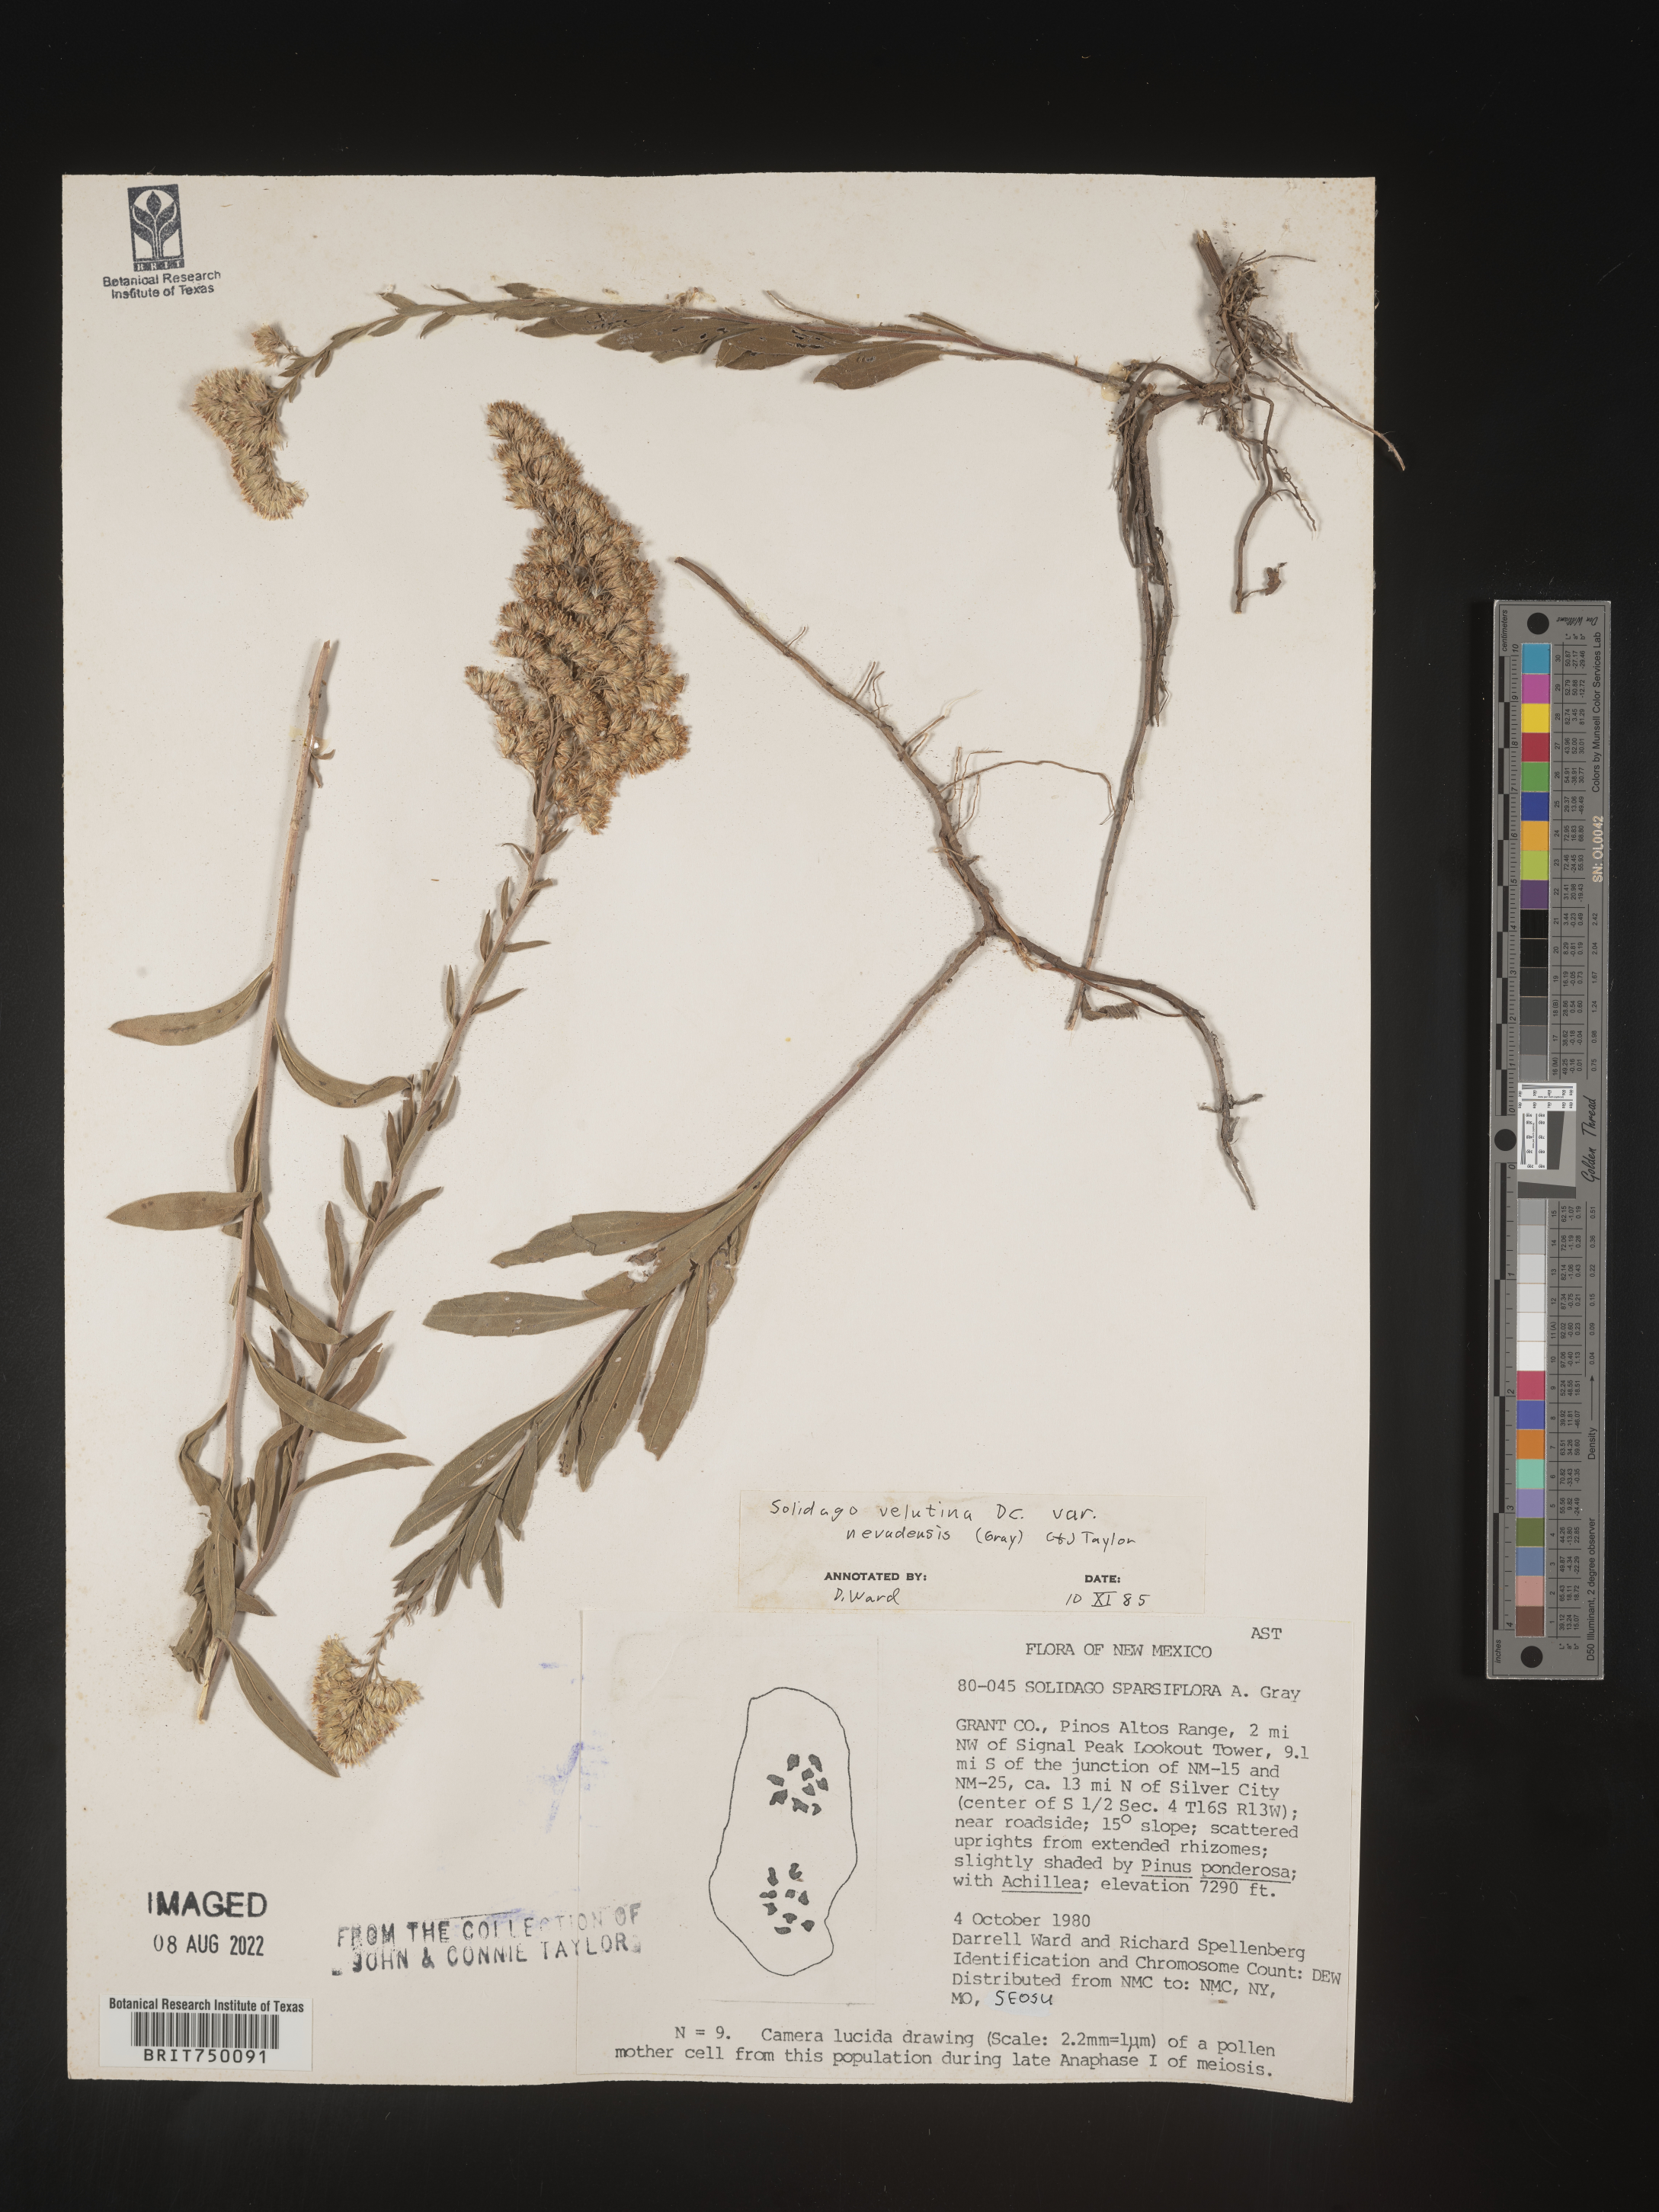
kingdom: Plantae
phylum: Tracheophyta
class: Magnoliopsida
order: Asterales
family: Asteraceae
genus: Solidago
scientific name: Solidago velutina
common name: Three-nerve goldenrod
